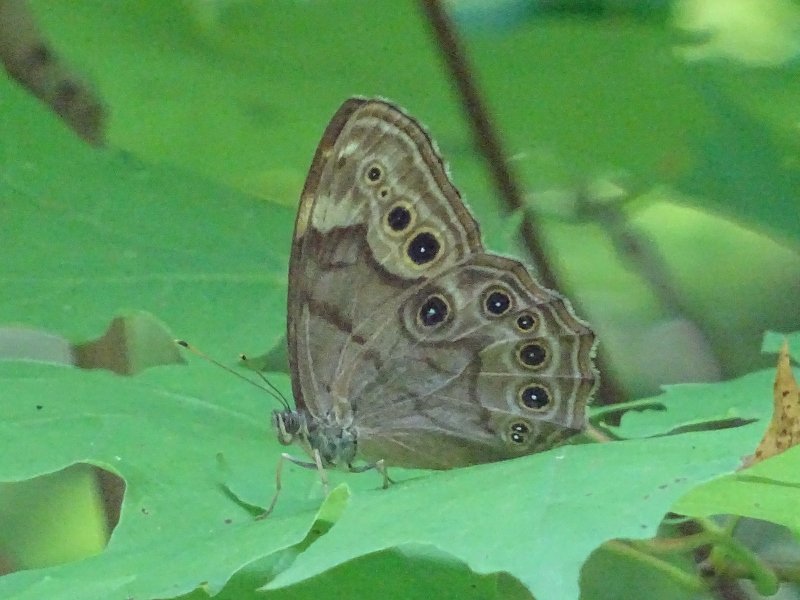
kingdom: Animalia
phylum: Arthropoda
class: Insecta
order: Lepidoptera
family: Nymphalidae
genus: Lethe
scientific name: Lethe anthedon
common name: Northern Pearly-Eye
